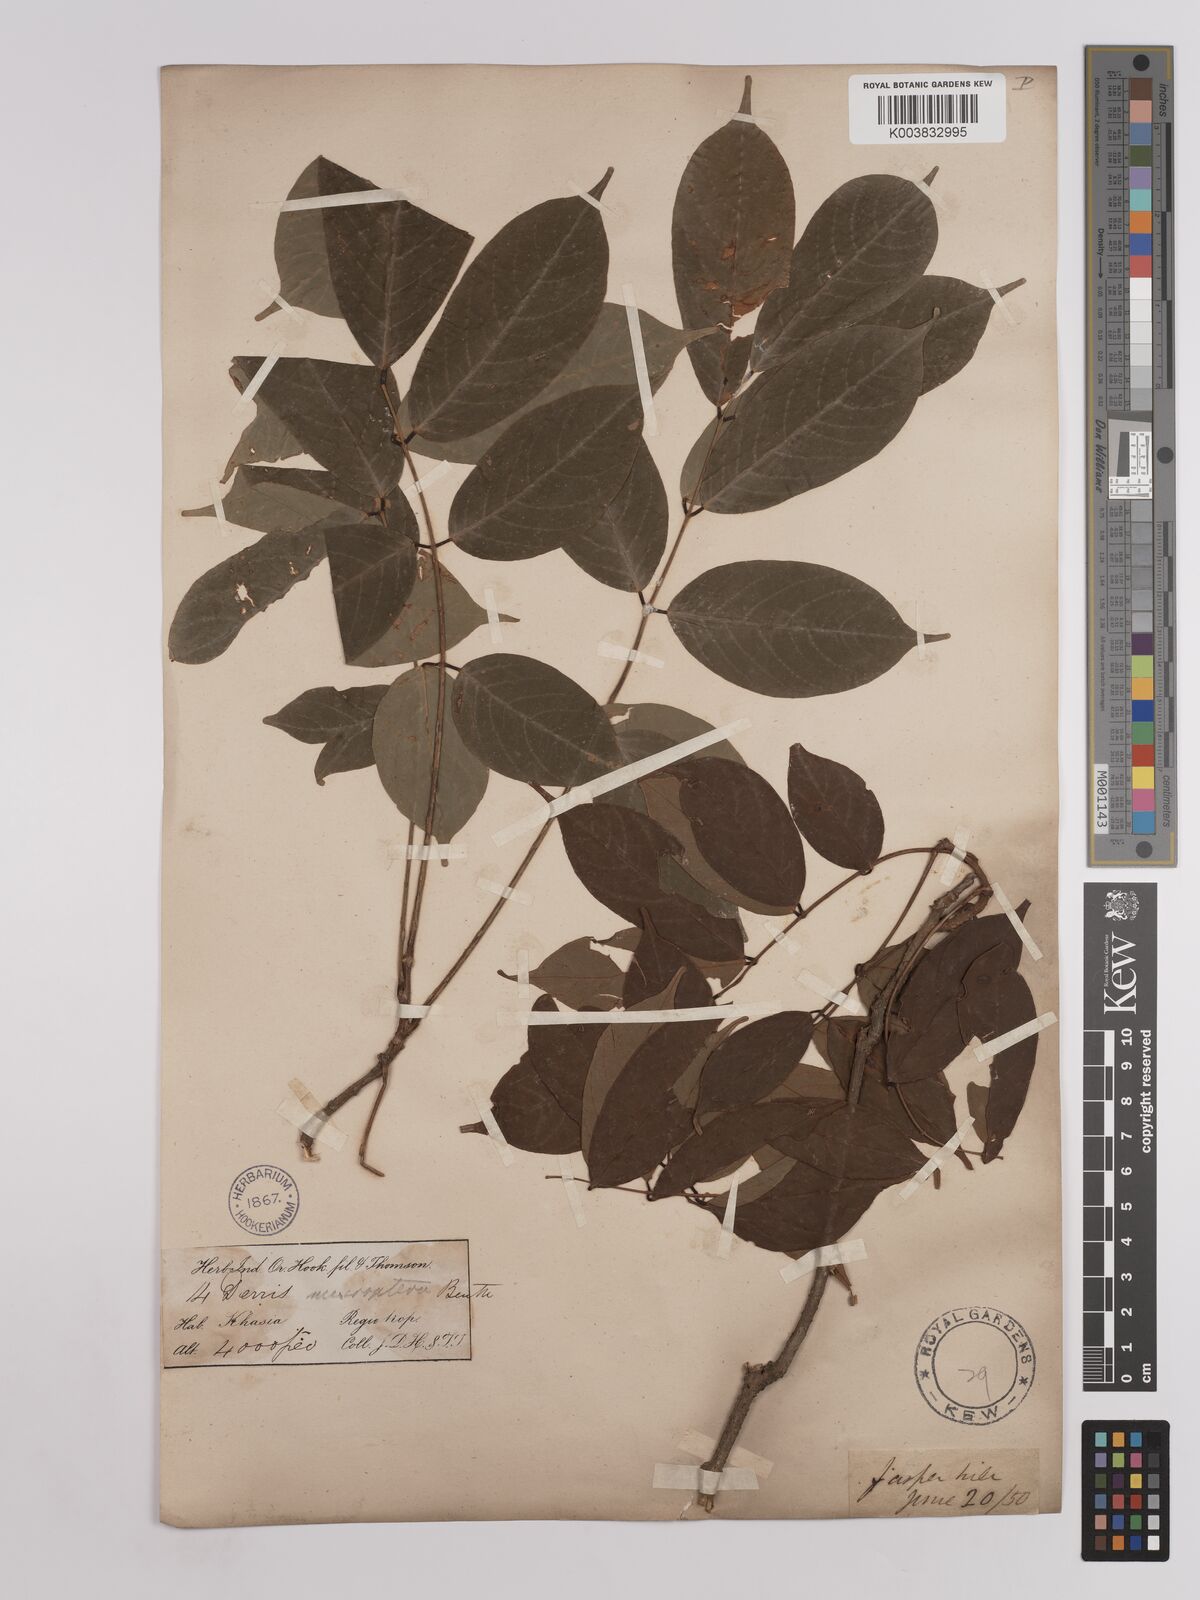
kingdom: Plantae
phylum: Tracheophyta
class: Magnoliopsida
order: Fabales
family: Fabaceae
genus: Derris
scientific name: Derris monticola
